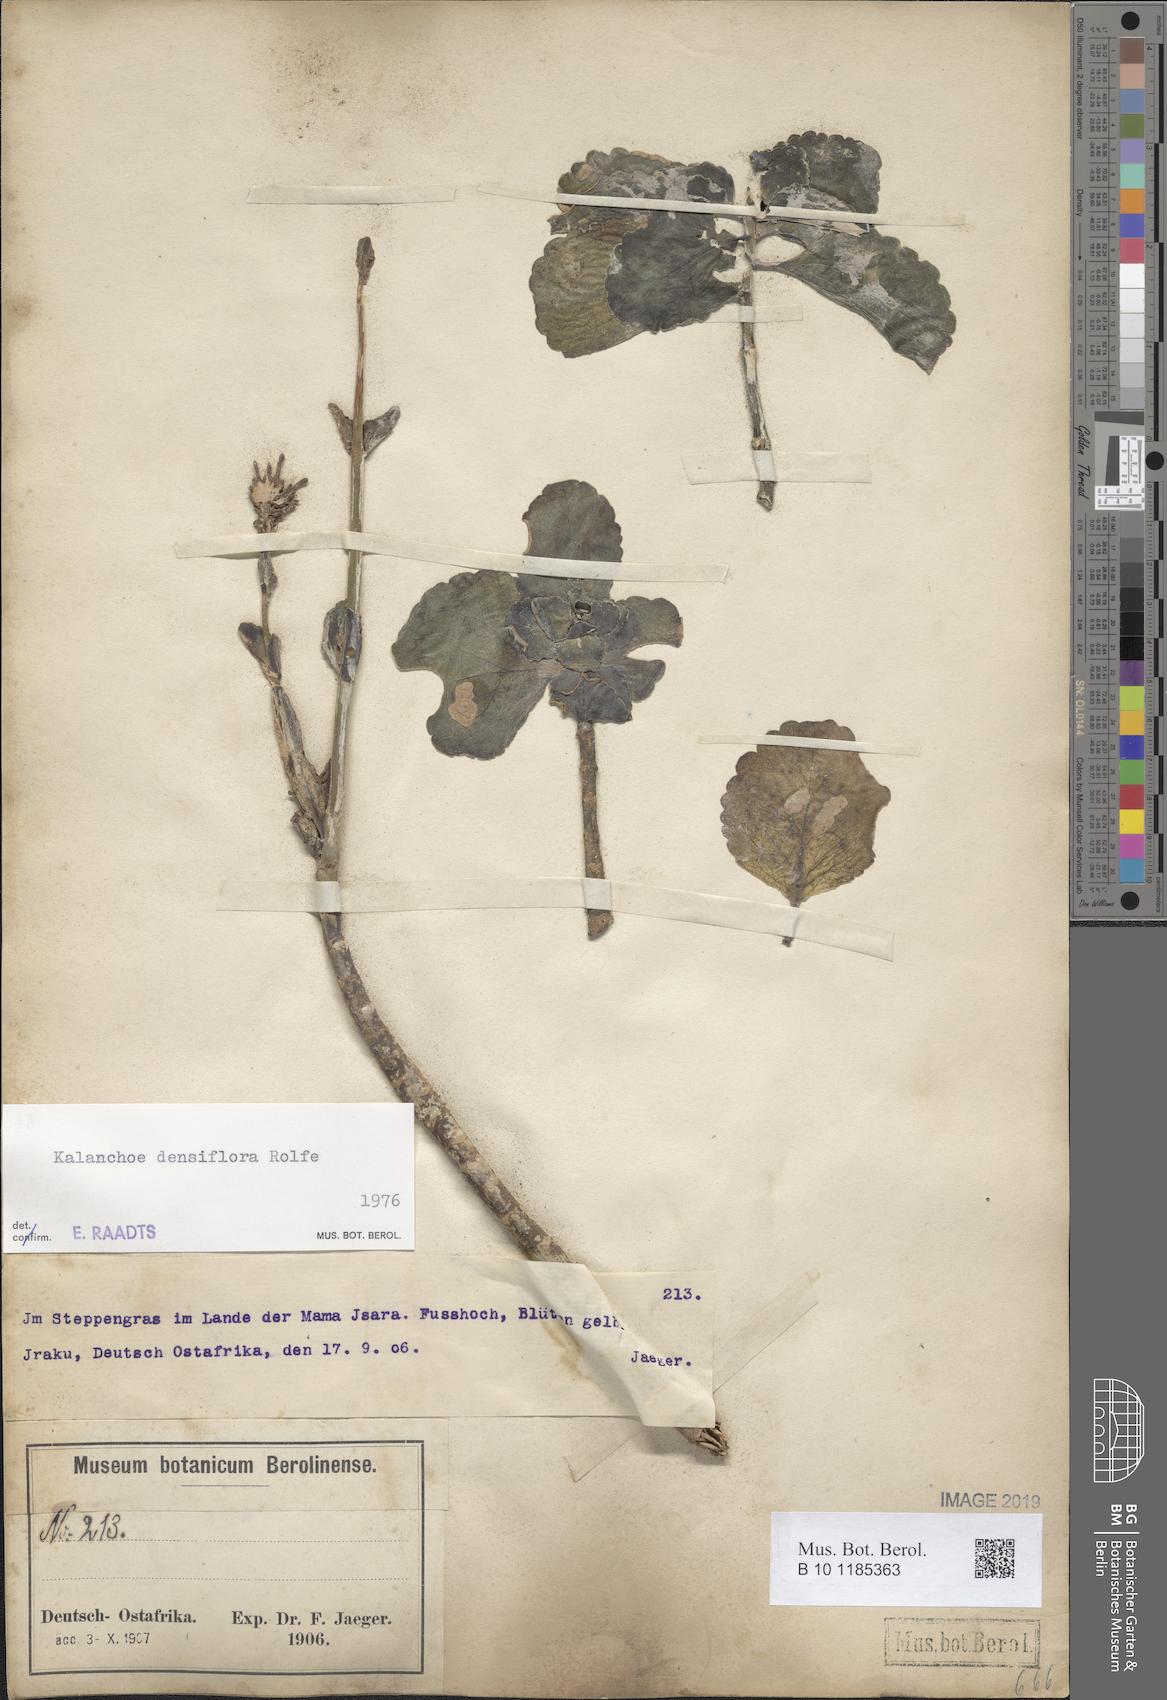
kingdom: Plantae
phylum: Tracheophyta
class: Magnoliopsida
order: Saxifragales
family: Crassulaceae
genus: Kalanchoe
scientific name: Kalanchoe densiflora
